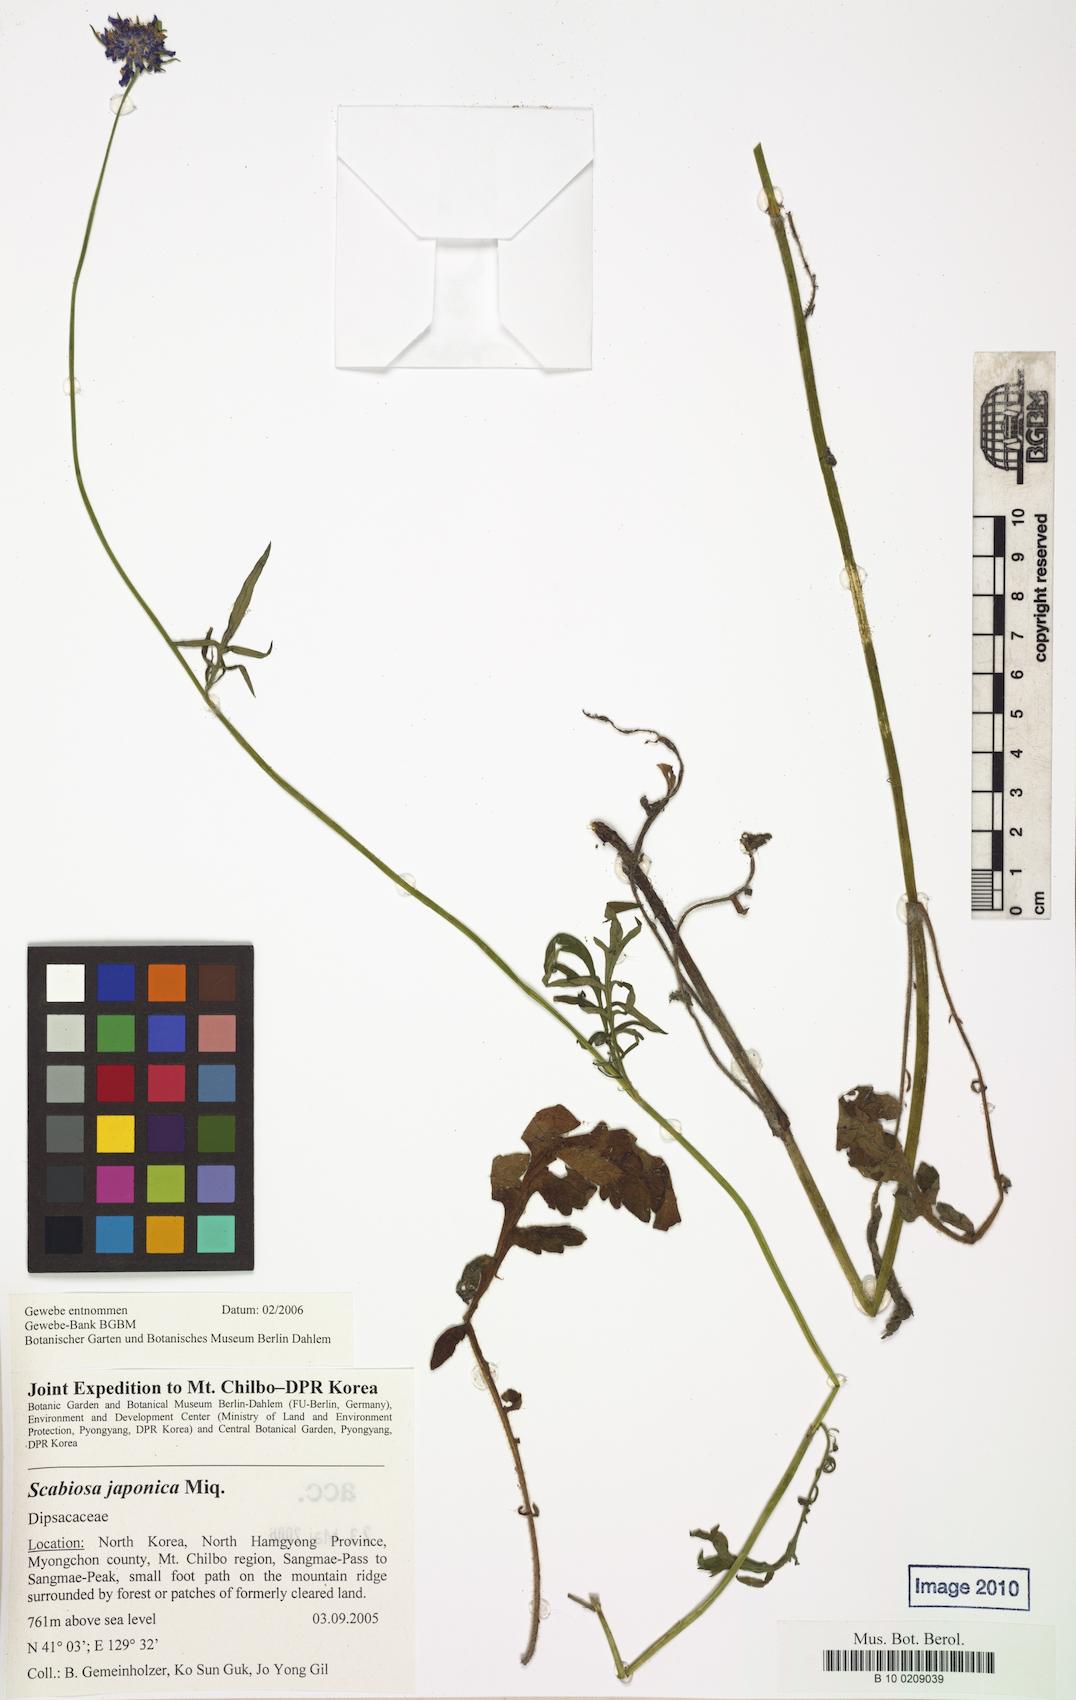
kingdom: Plantae
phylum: Tracheophyta
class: Magnoliopsida
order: Dipsacales
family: Caprifoliaceae
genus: Scabiosa
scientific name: Scabiosa japonica
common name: Pincushion-flower
